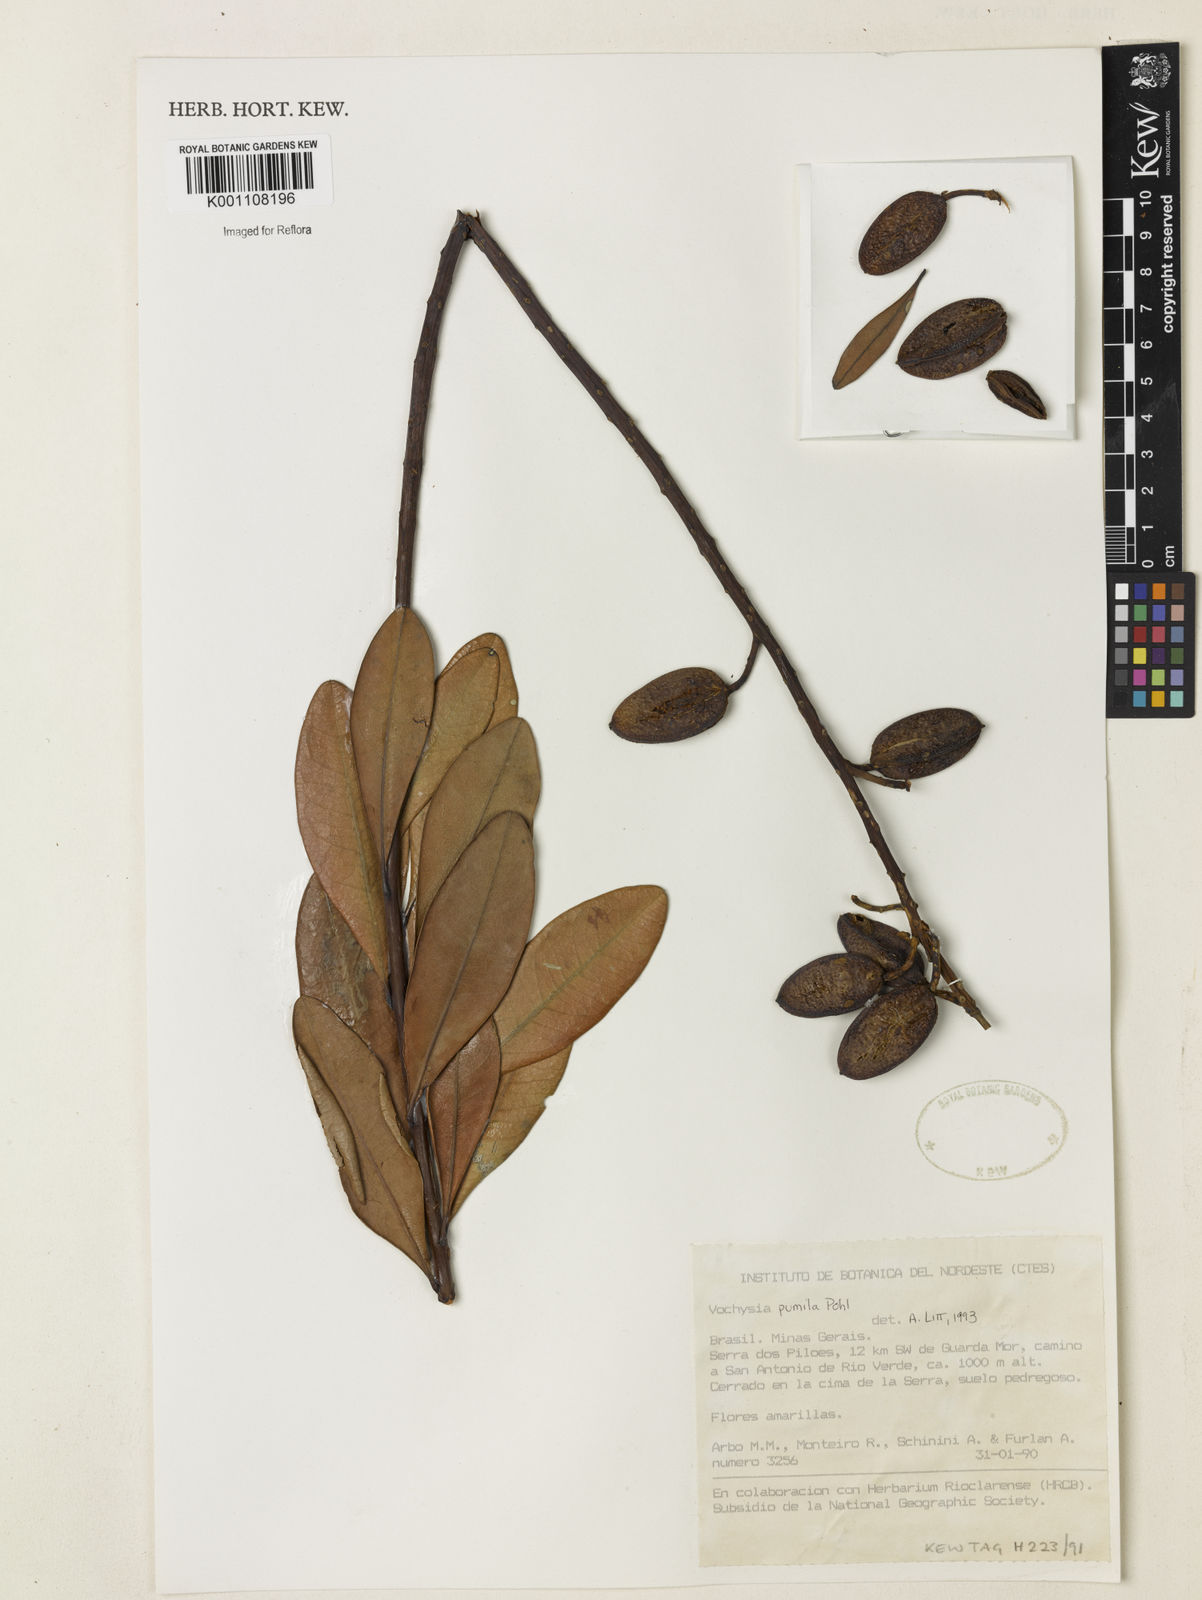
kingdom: Plantae
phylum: Tracheophyta
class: Magnoliopsida
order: Myrtales
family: Vochysiaceae
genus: Vochysia
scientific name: Vochysia pumila
